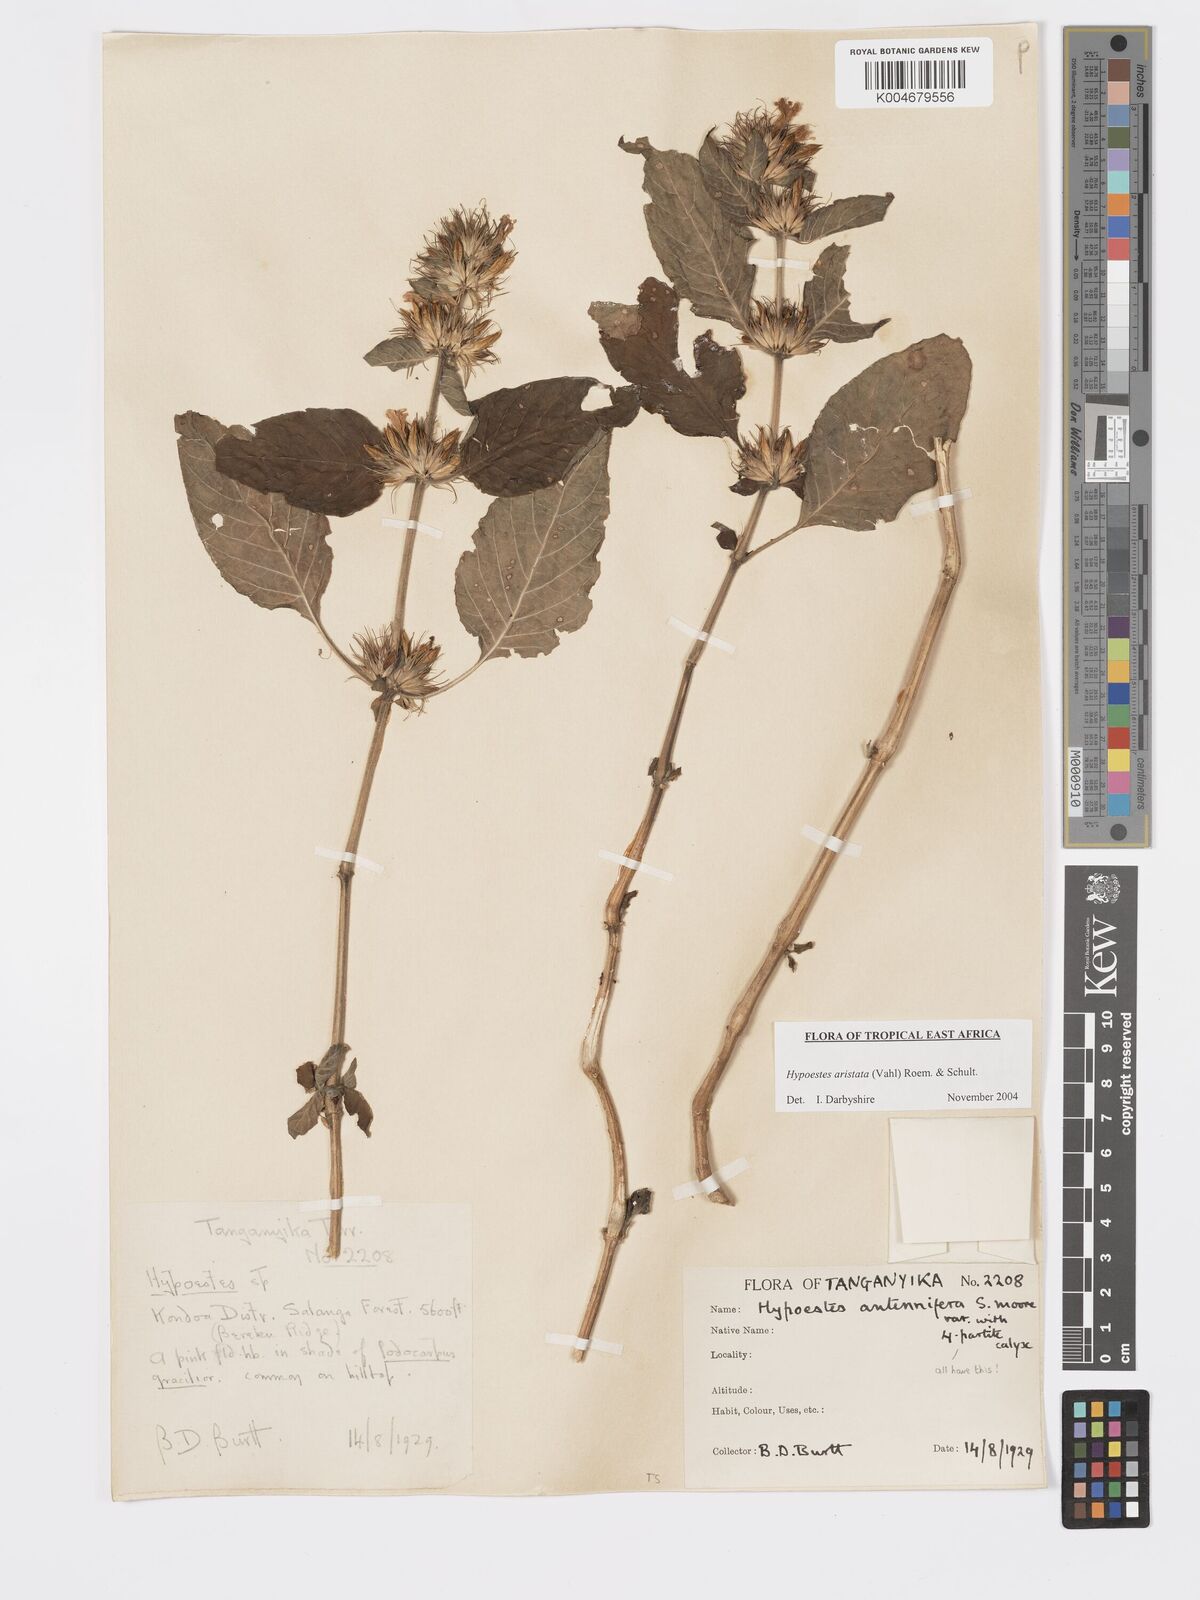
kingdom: Plantae
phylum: Tracheophyta
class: Magnoliopsida
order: Lamiales
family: Acanthaceae
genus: Hypoestes
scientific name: Hypoestes aristata
